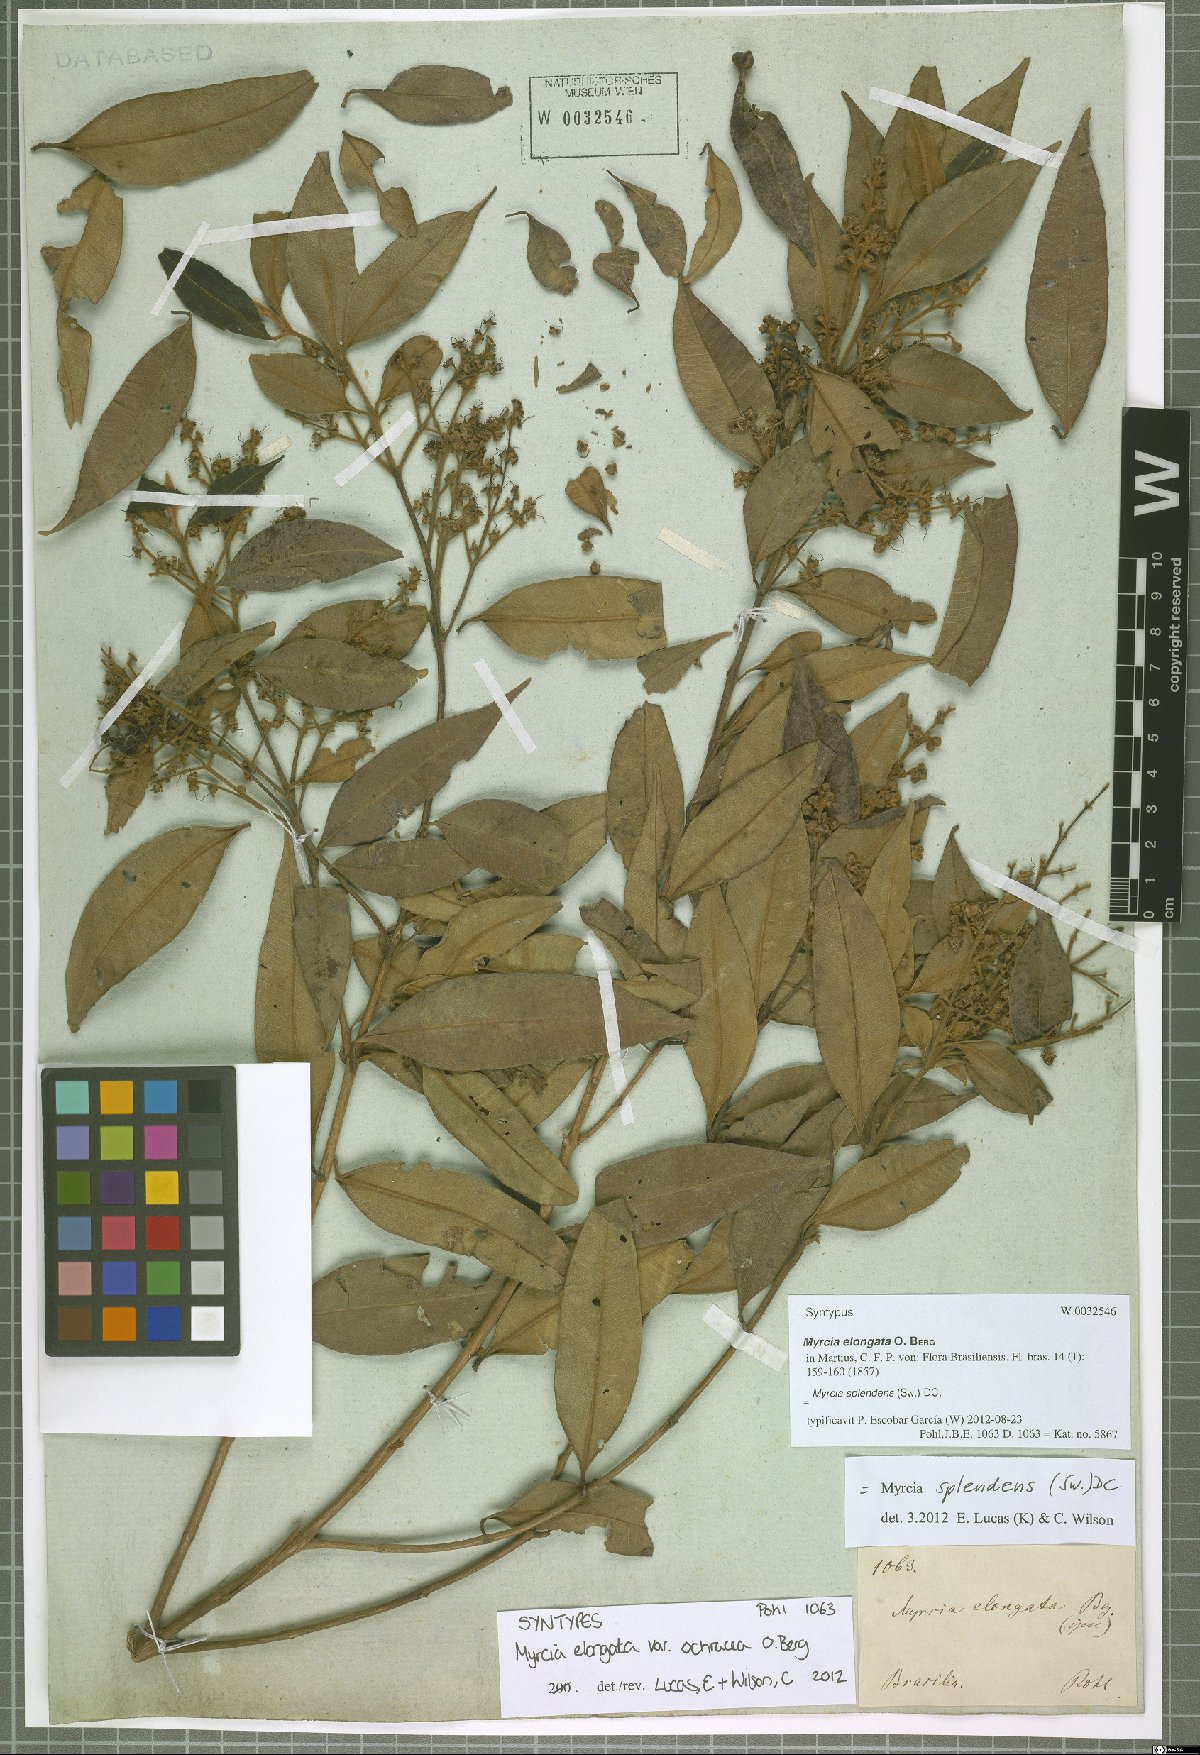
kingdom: Plantae
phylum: Tracheophyta
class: Magnoliopsida
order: Myrtales
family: Myrtaceae
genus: Myrcia
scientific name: Myrcia splendens
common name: Surinam cherry
